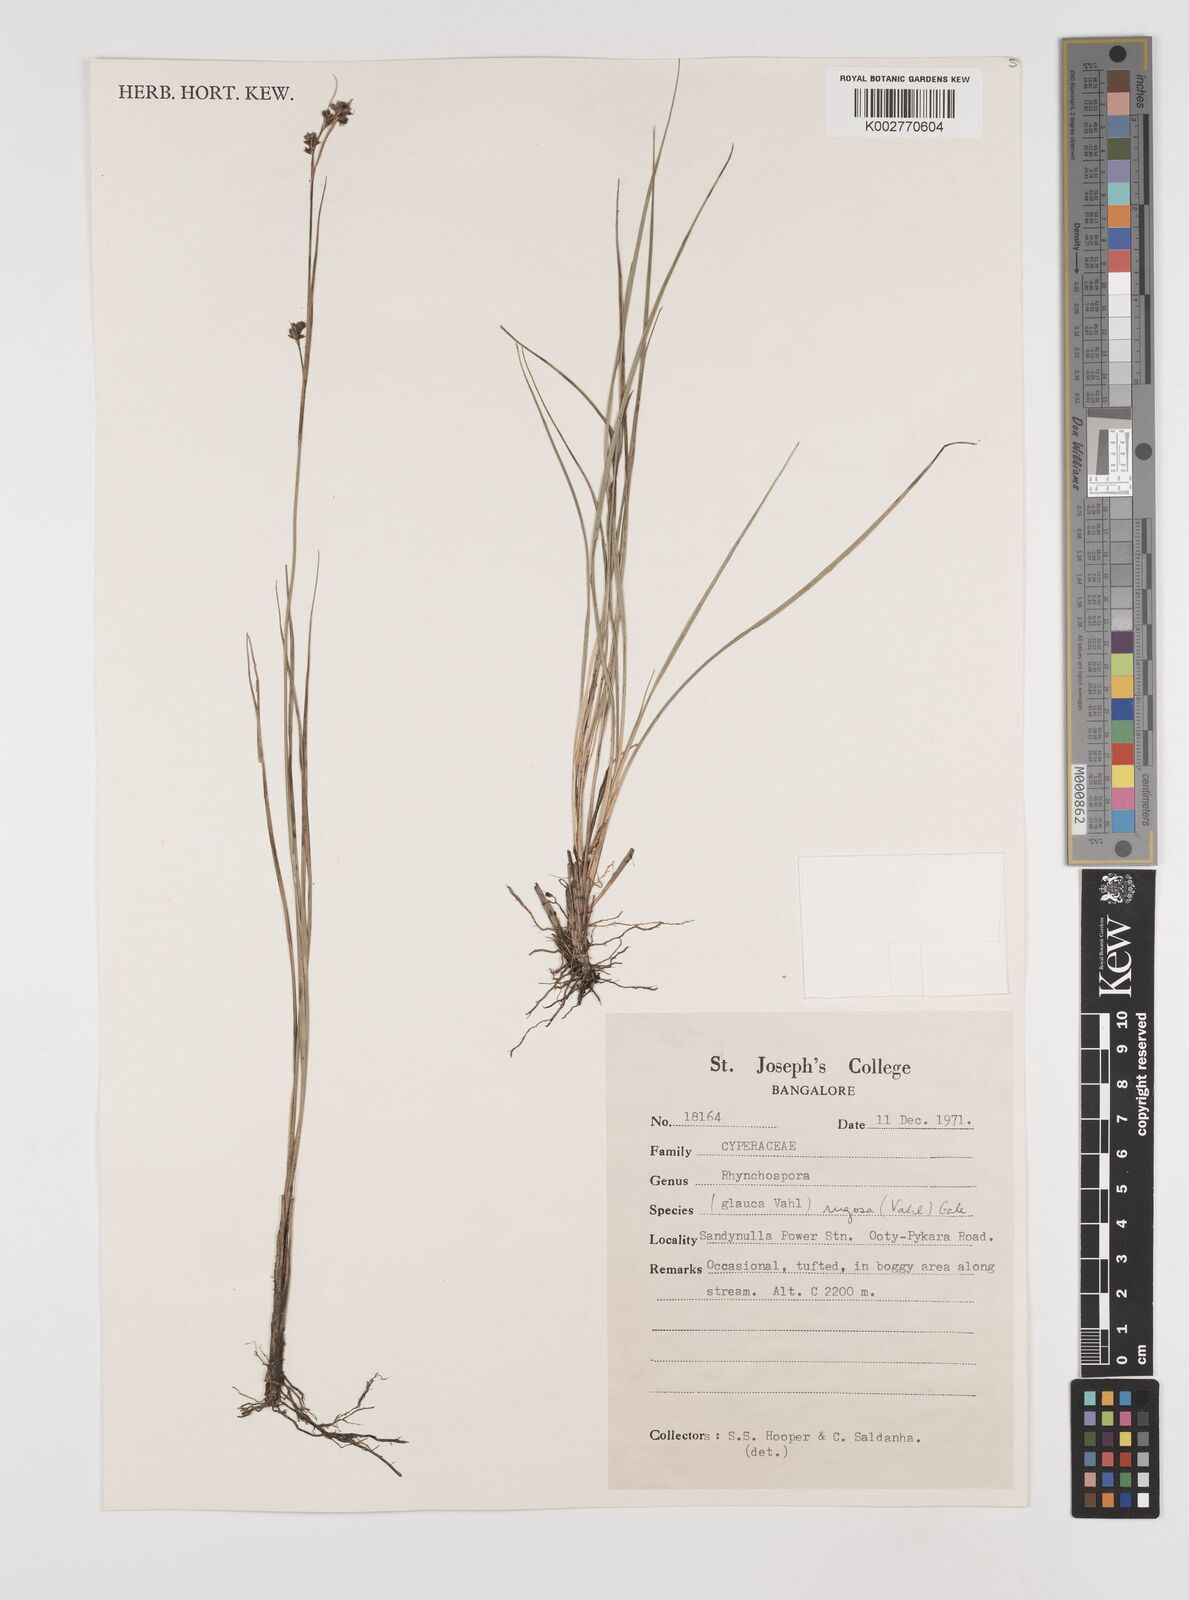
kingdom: Plantae
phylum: Tracheophyta
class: Liliopsida
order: Poales
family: Cyperaceae
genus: Rhynchospora
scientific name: Rhynchospora rugosa
